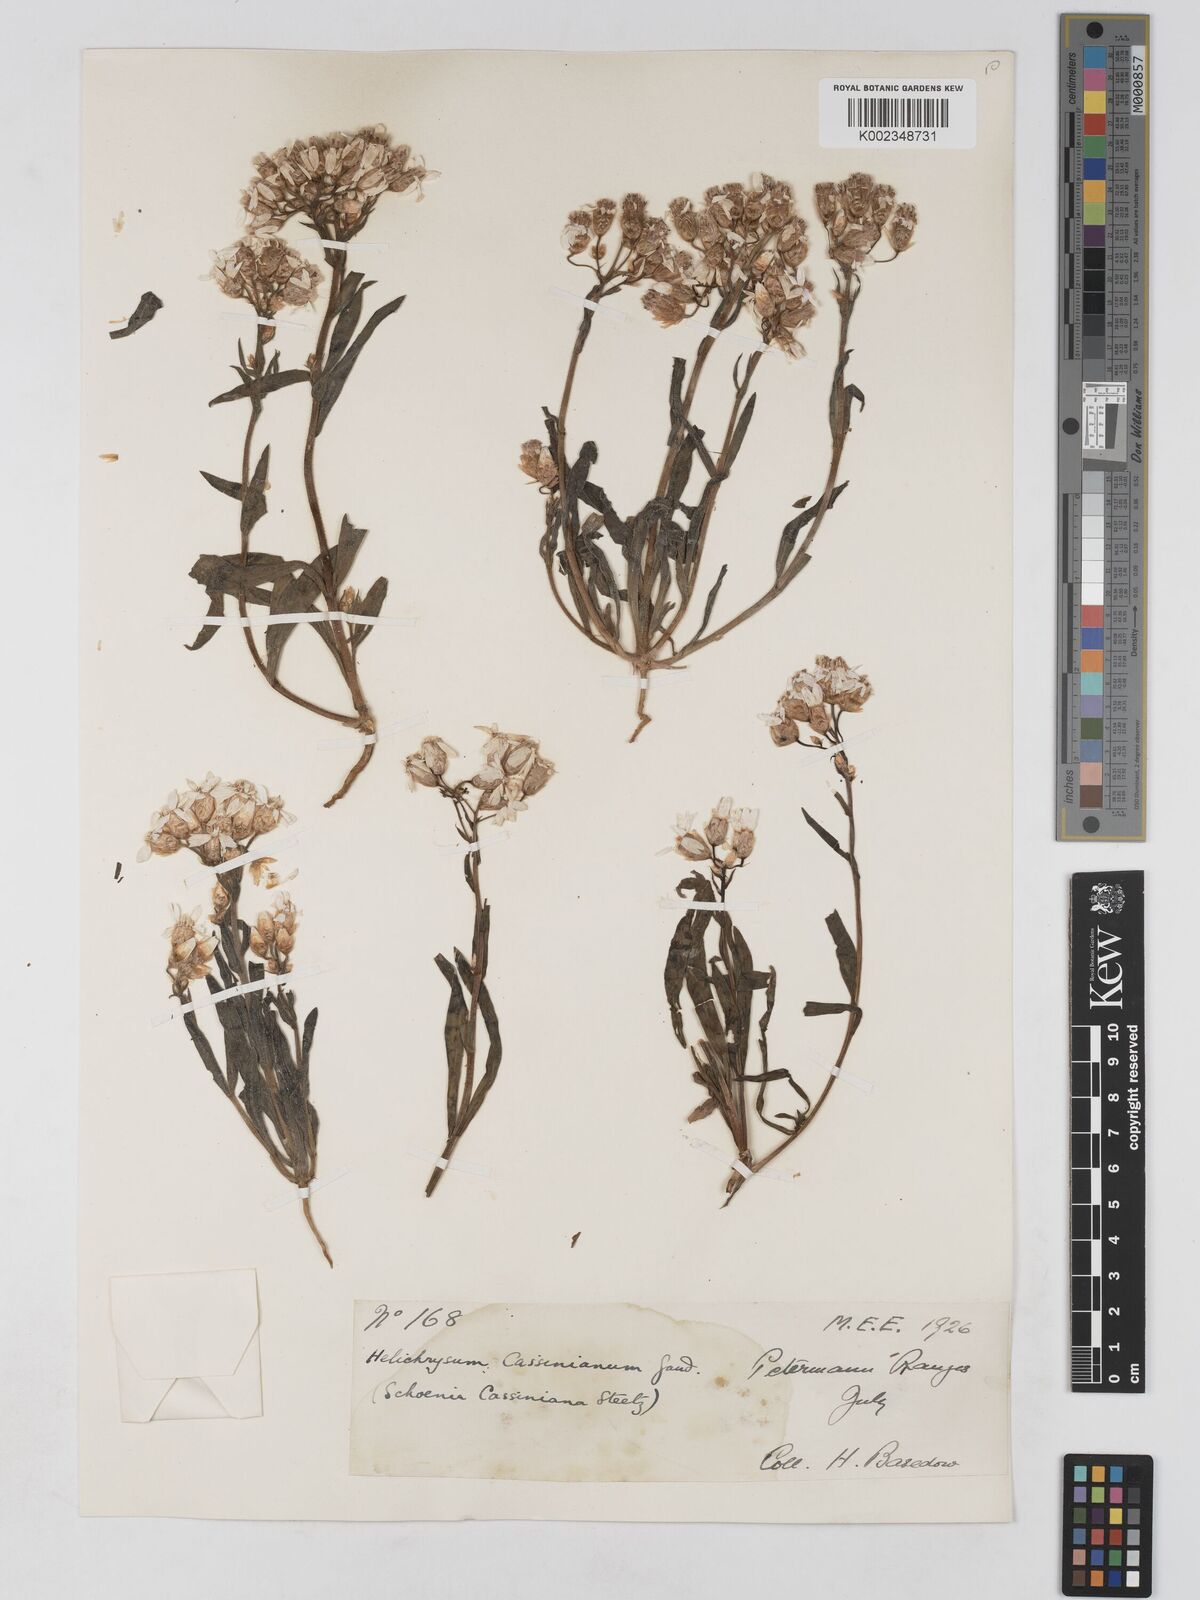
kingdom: Plantae
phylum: Tracheophyta
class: Magnoliopsida
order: Asterales
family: Asteraceae
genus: Schoenia
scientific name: Schoenia cassiniana
